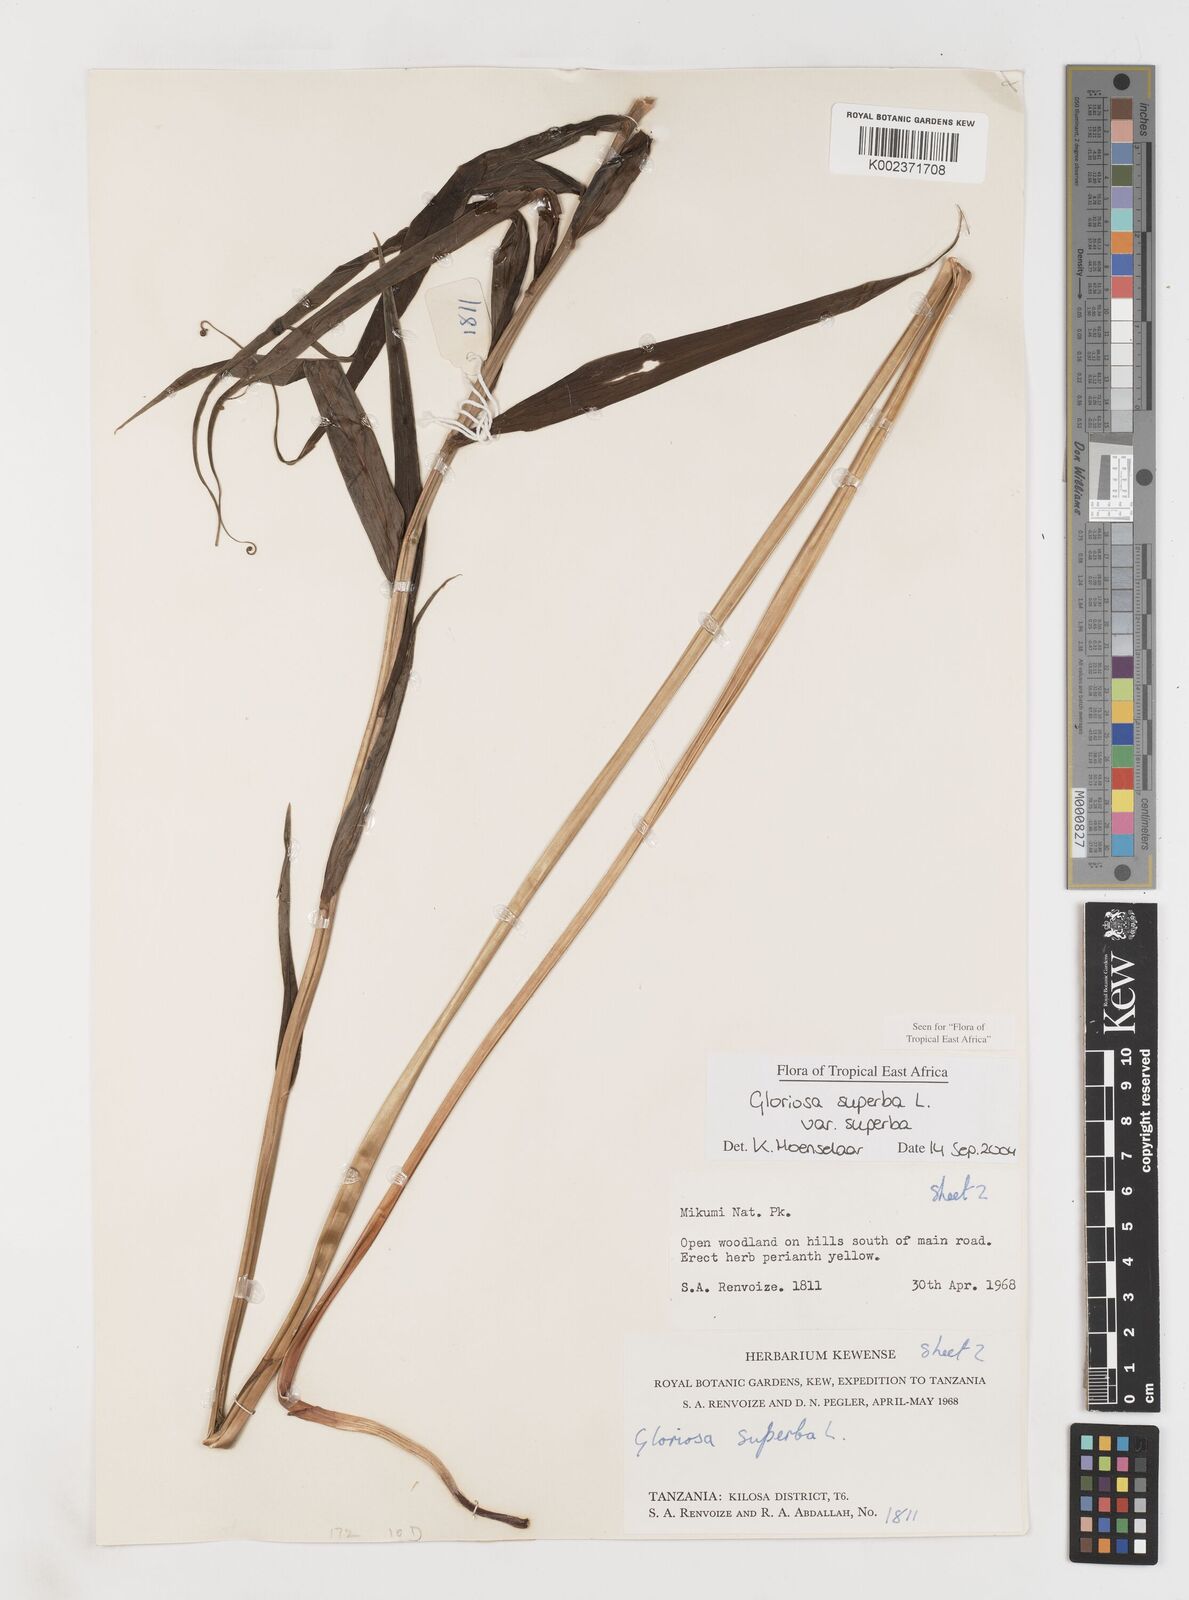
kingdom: Plantae
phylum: Tracheophyta
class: Liliopsida
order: Liliales
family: Colchicaceae
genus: Gloriosa
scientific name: Gloriosa simplex
